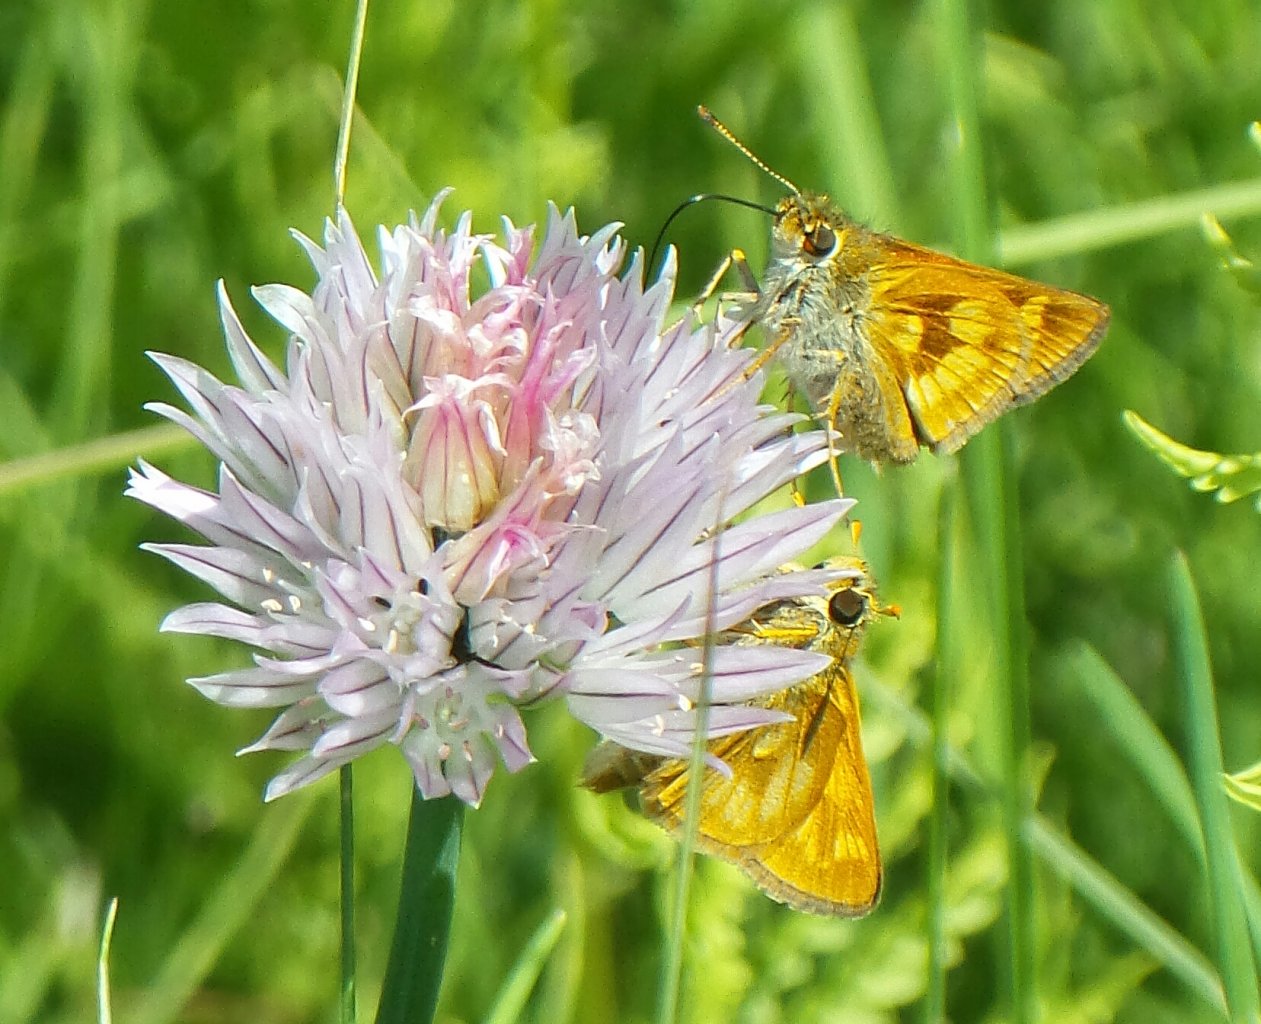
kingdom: Animalia
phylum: Arthropoda
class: Insecta
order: Lepidoptera
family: Hesperiidae
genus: Polites
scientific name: Polites
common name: Long Dash Skipper
